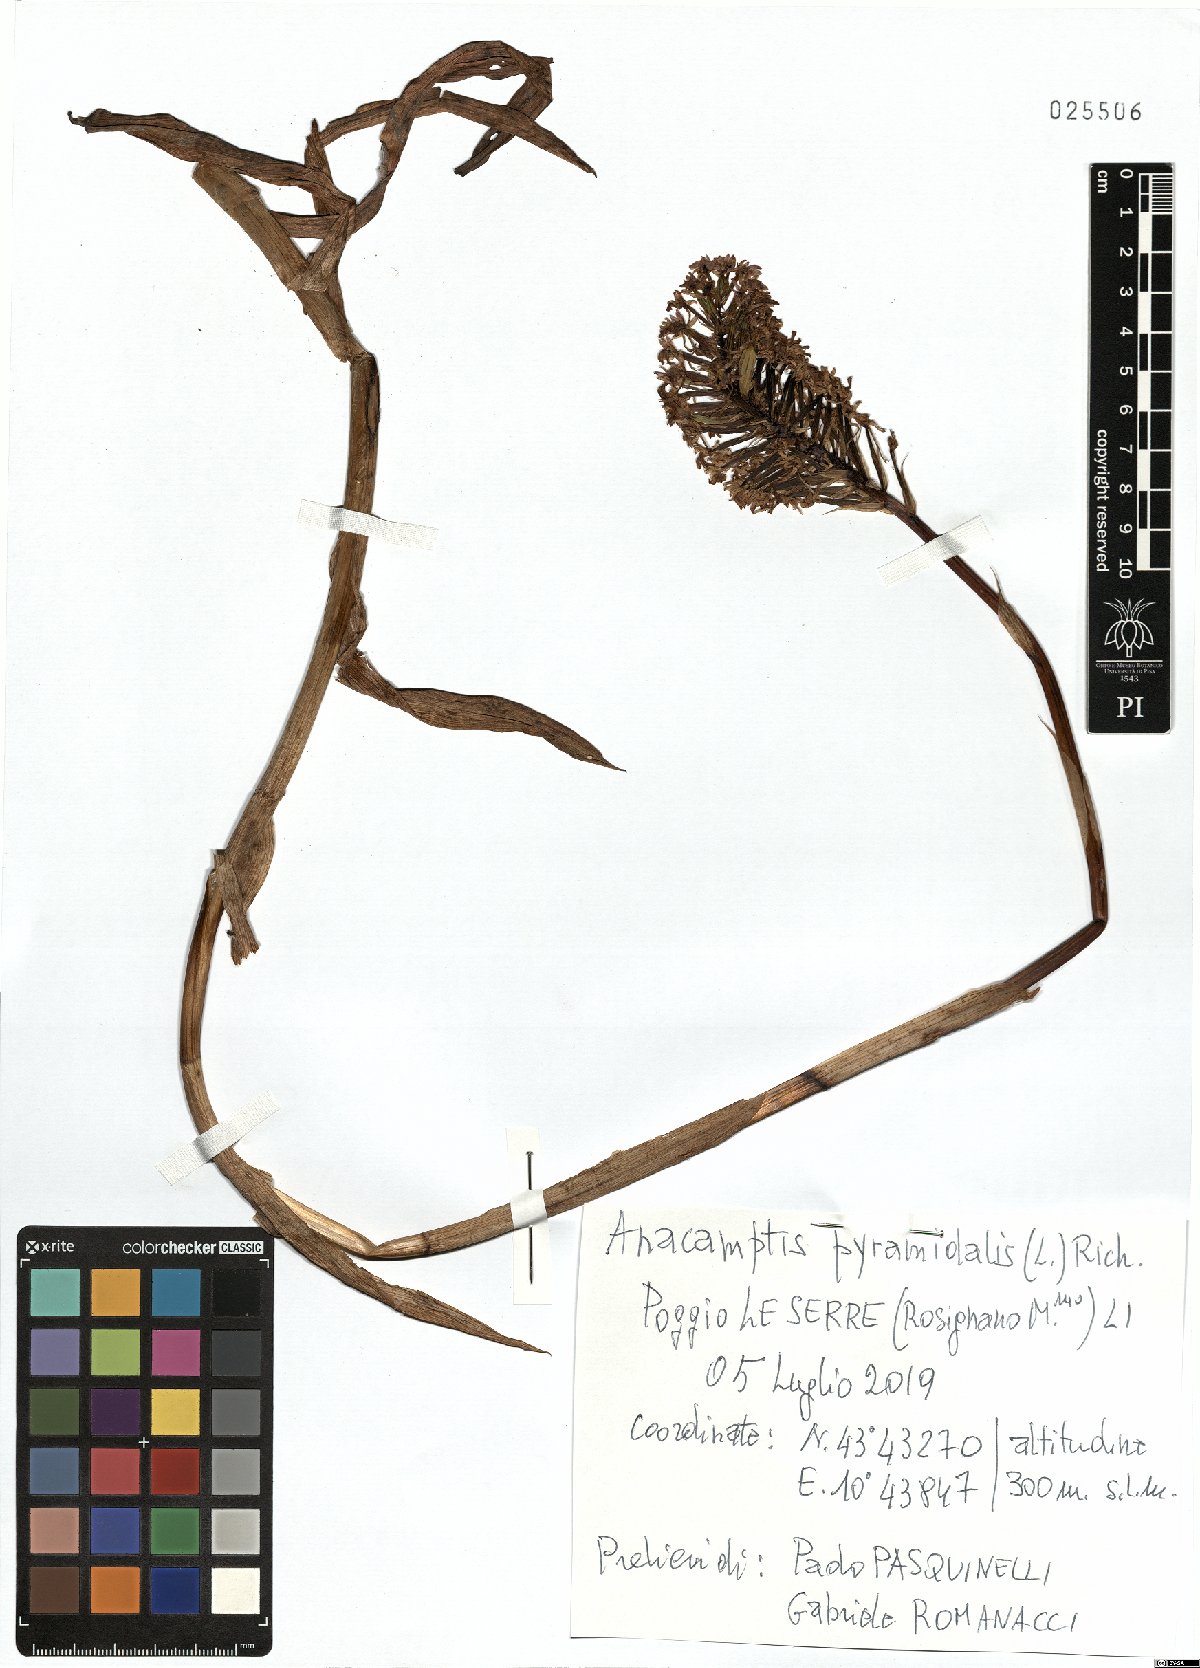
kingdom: Plantae
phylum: Tracheophyta
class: Liliopsida
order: Asparagales
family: Orchidaceae
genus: Anacamptis
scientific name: Anacamptis pyramidalis
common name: Pyramidal orchid
